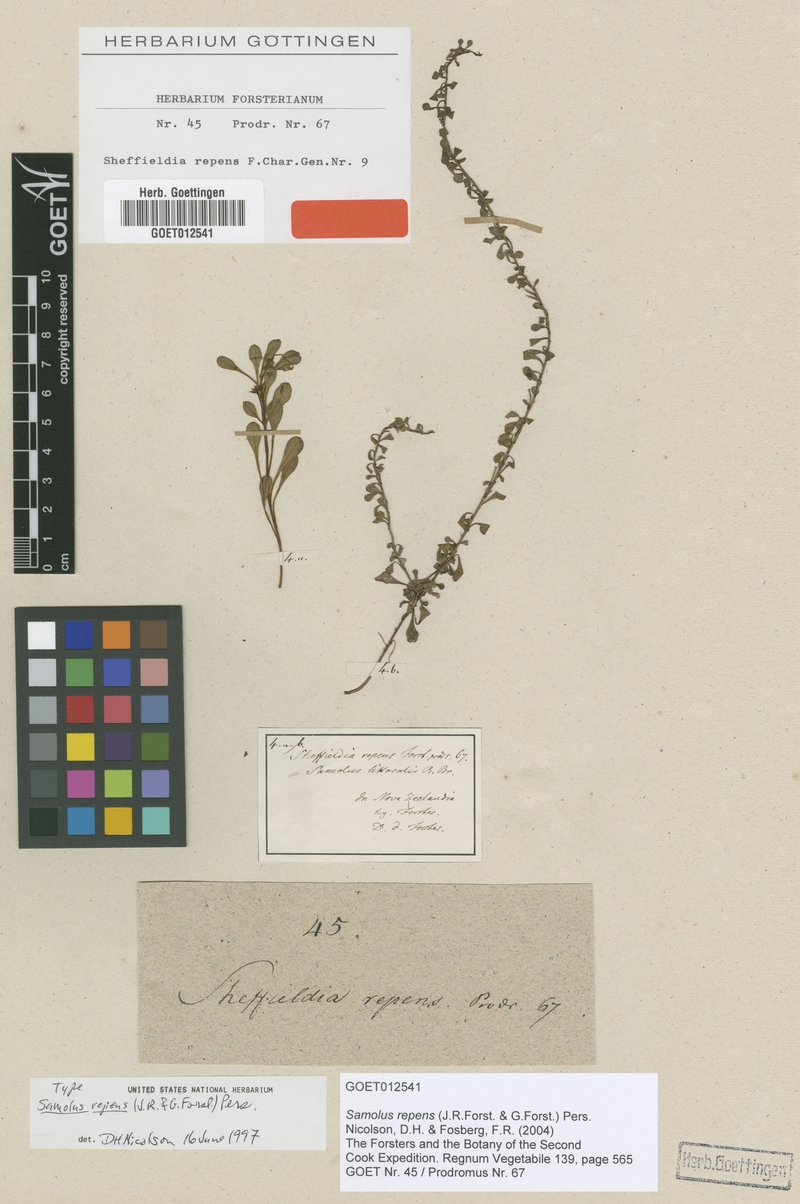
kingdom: Plantae
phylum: Tracheophyta
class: Magnoliopsida
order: Ericales
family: Primulaceae
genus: Samolus
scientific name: Samolus repens
